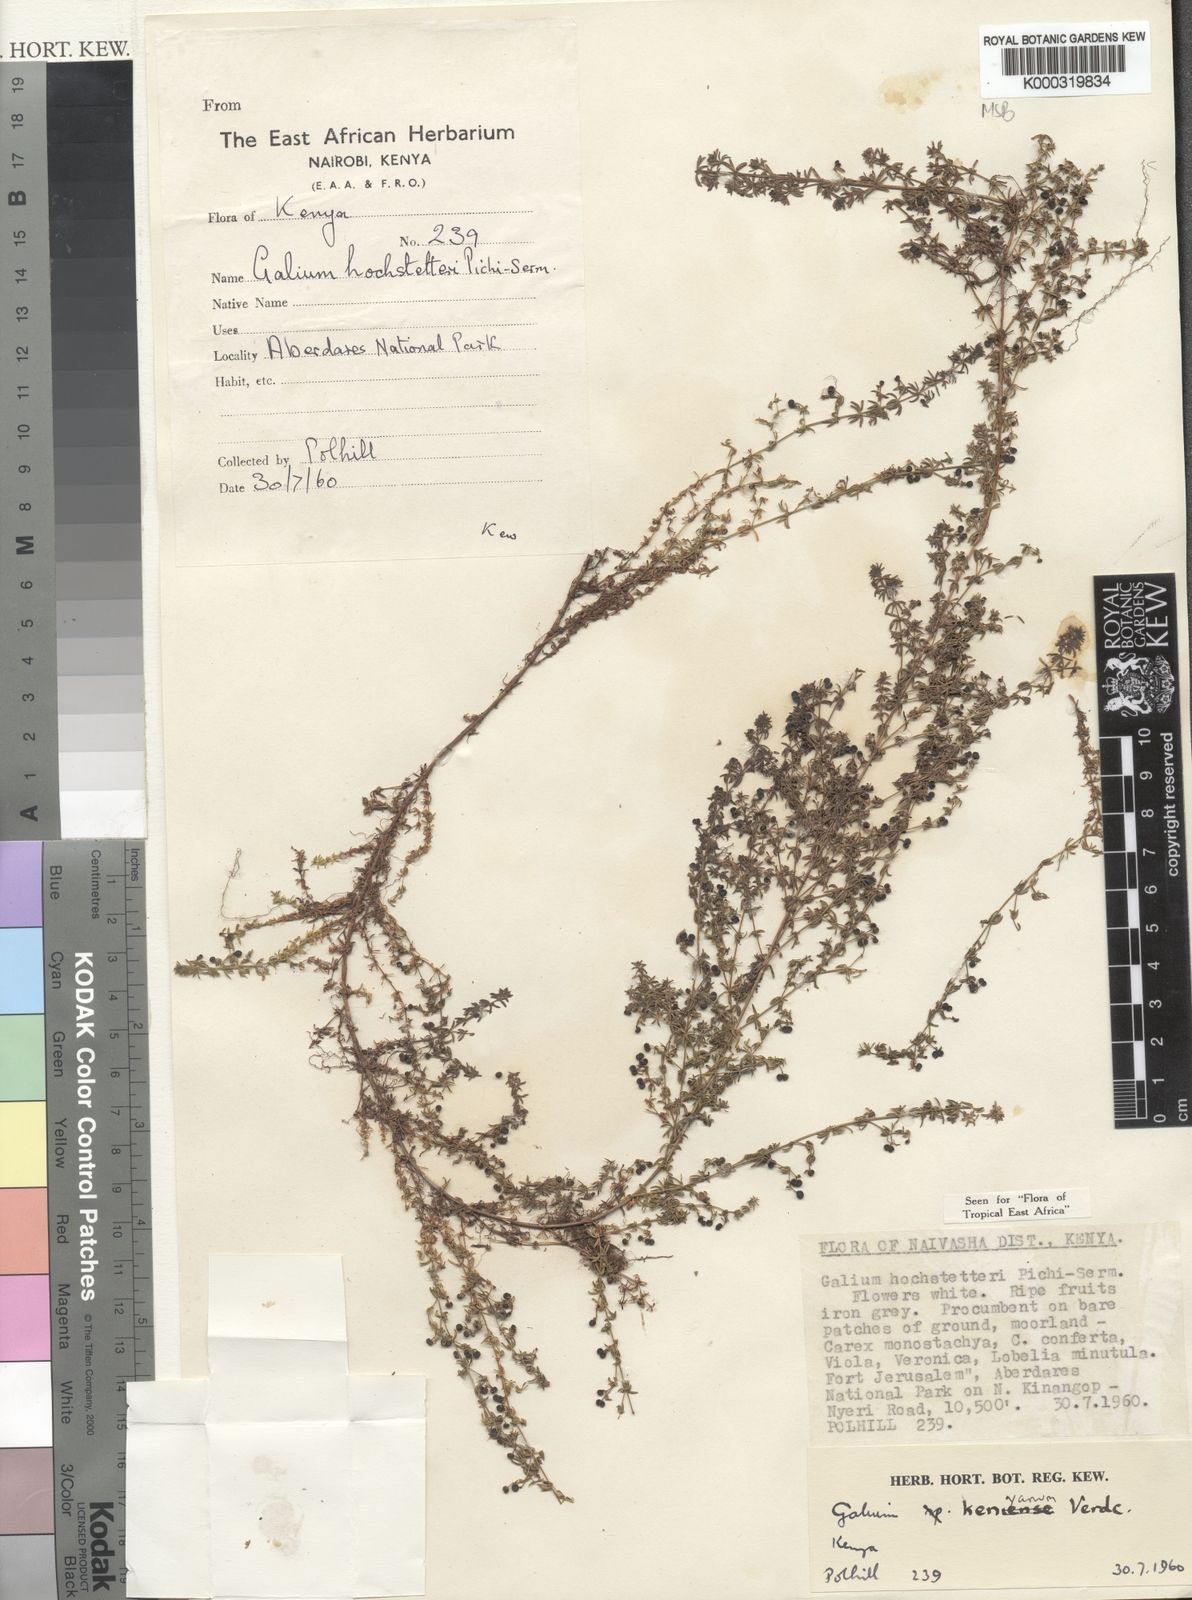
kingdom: Plantae
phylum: Tracheophyta
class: Magnoliopsida
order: Gentianales
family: Rubiaceae
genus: Galium
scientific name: Galium kenyanum
